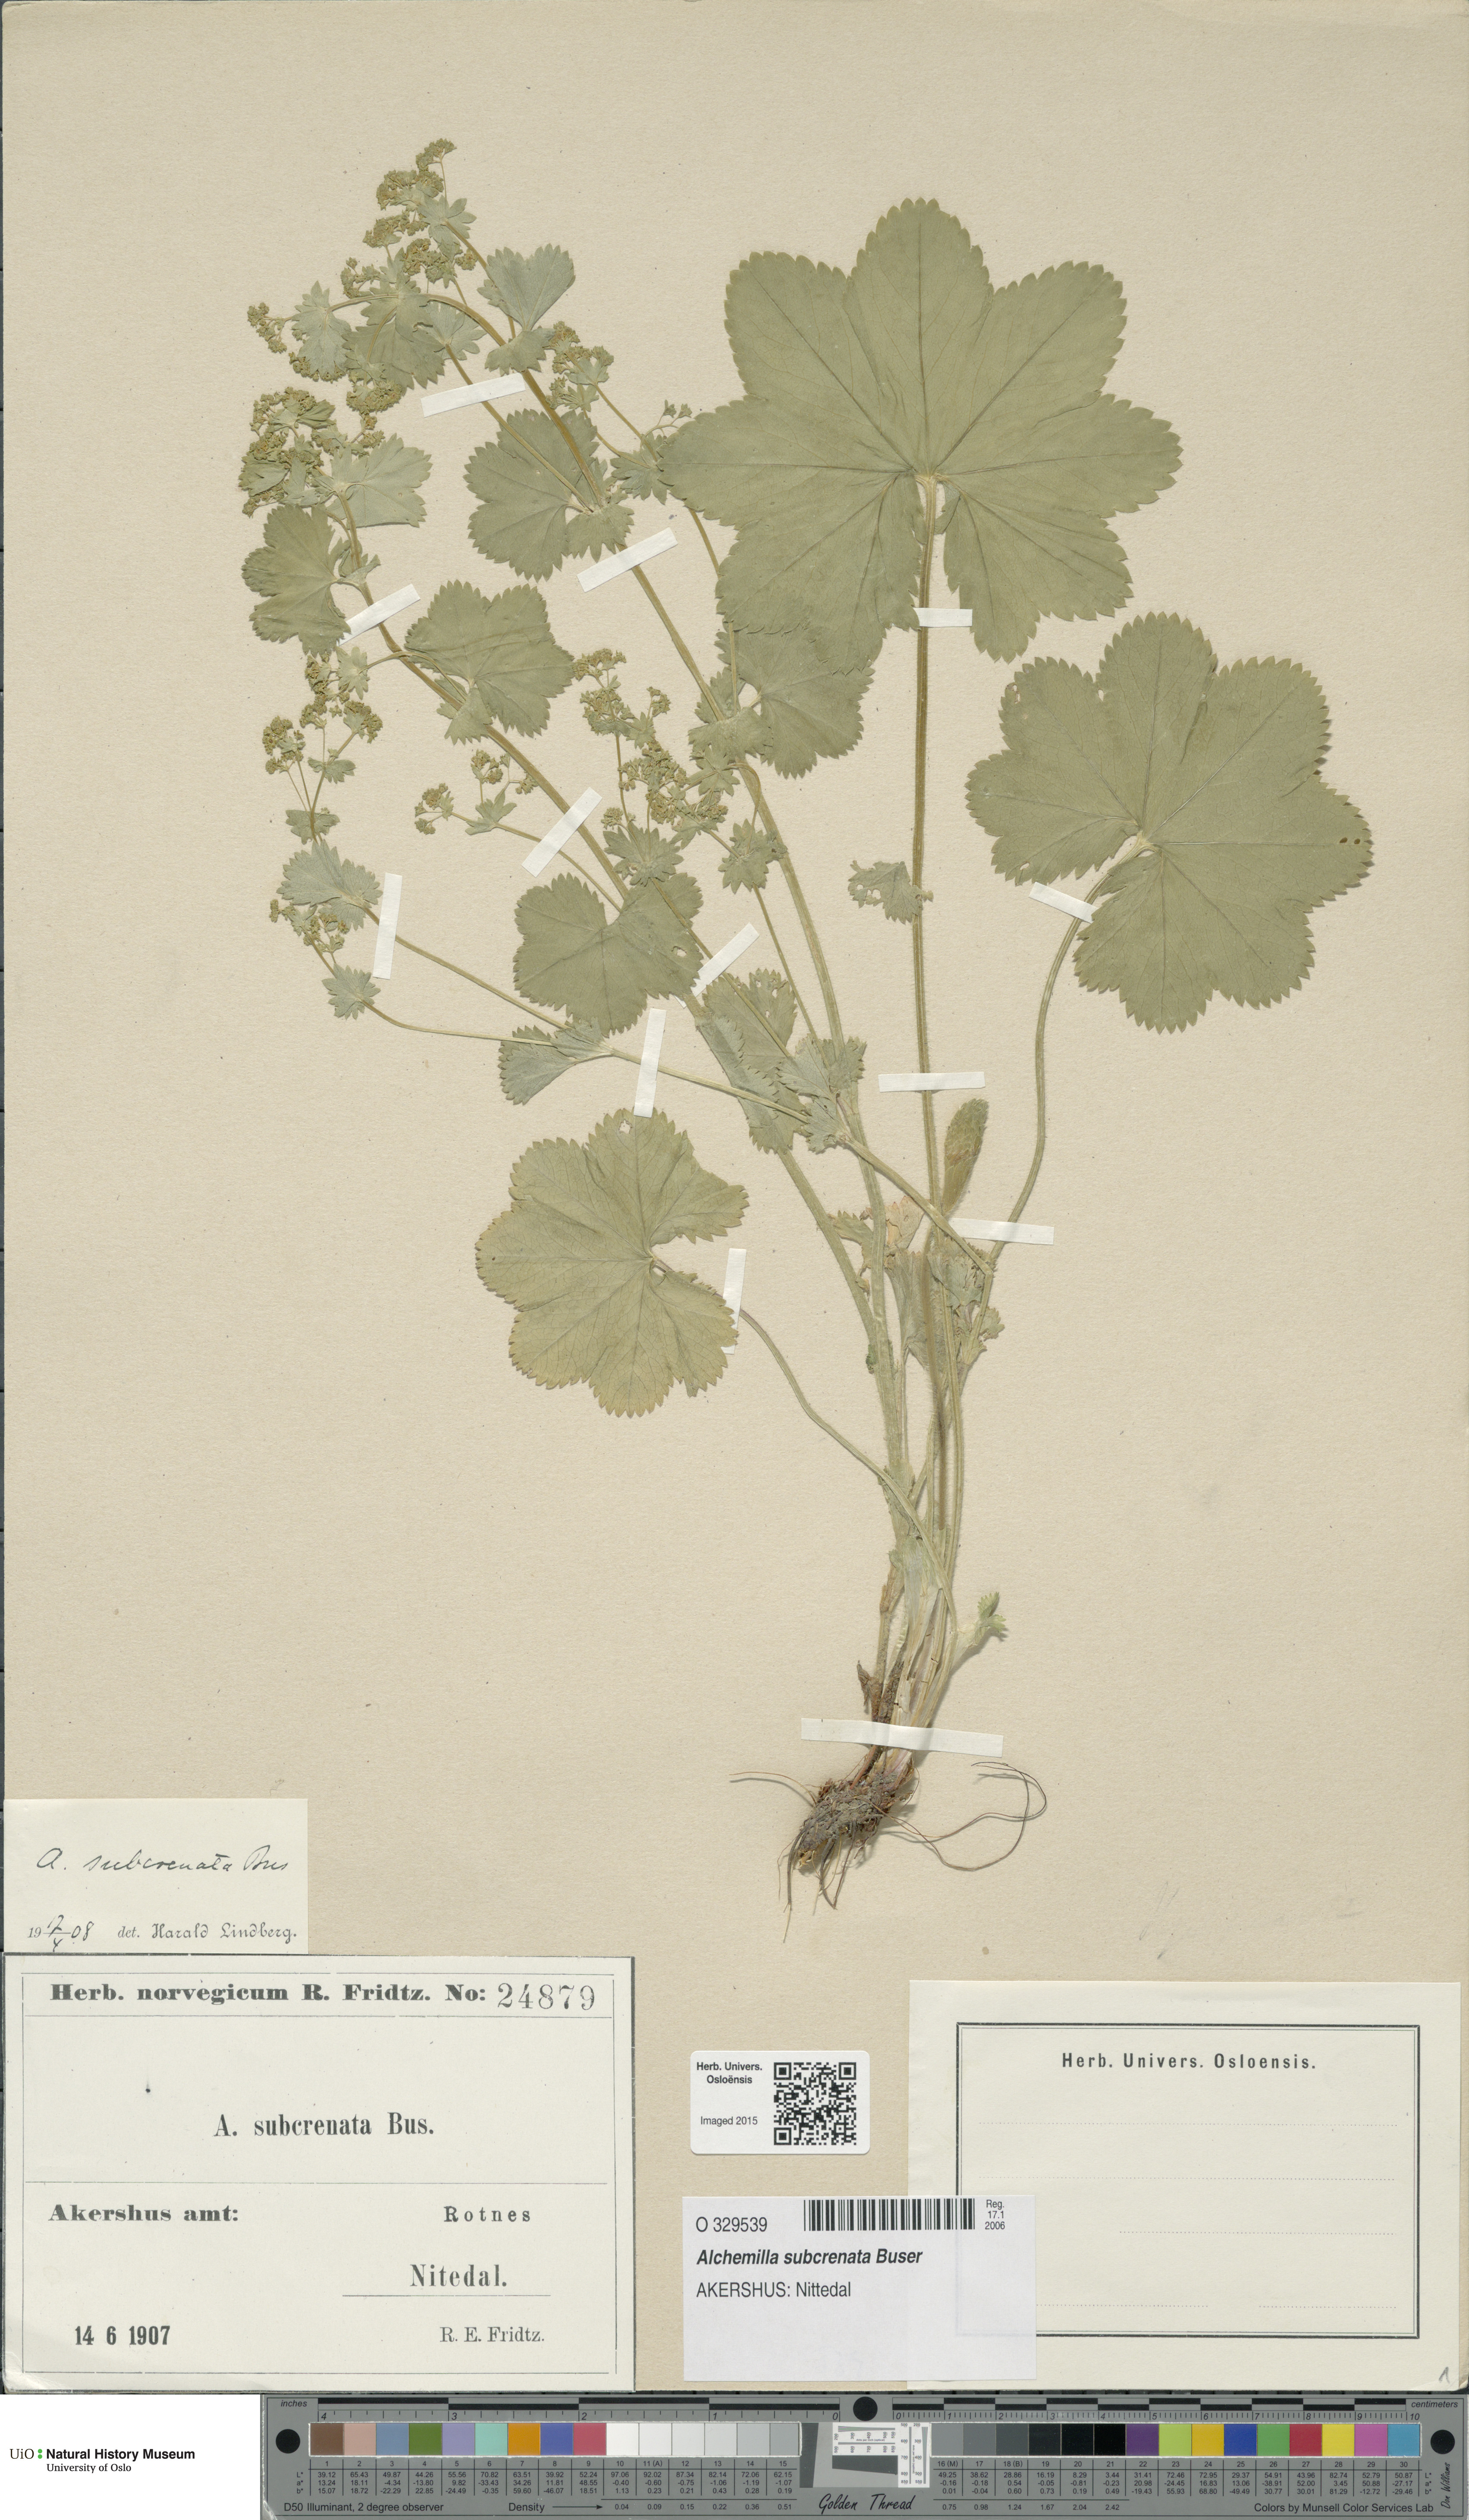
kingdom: Plantae
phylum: Tracheophyta
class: Magnoliopsida
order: Rosales
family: Rosaceae
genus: Alchemilla
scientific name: Alchemilla subcrenata
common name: Broadtooth lady's mantle
